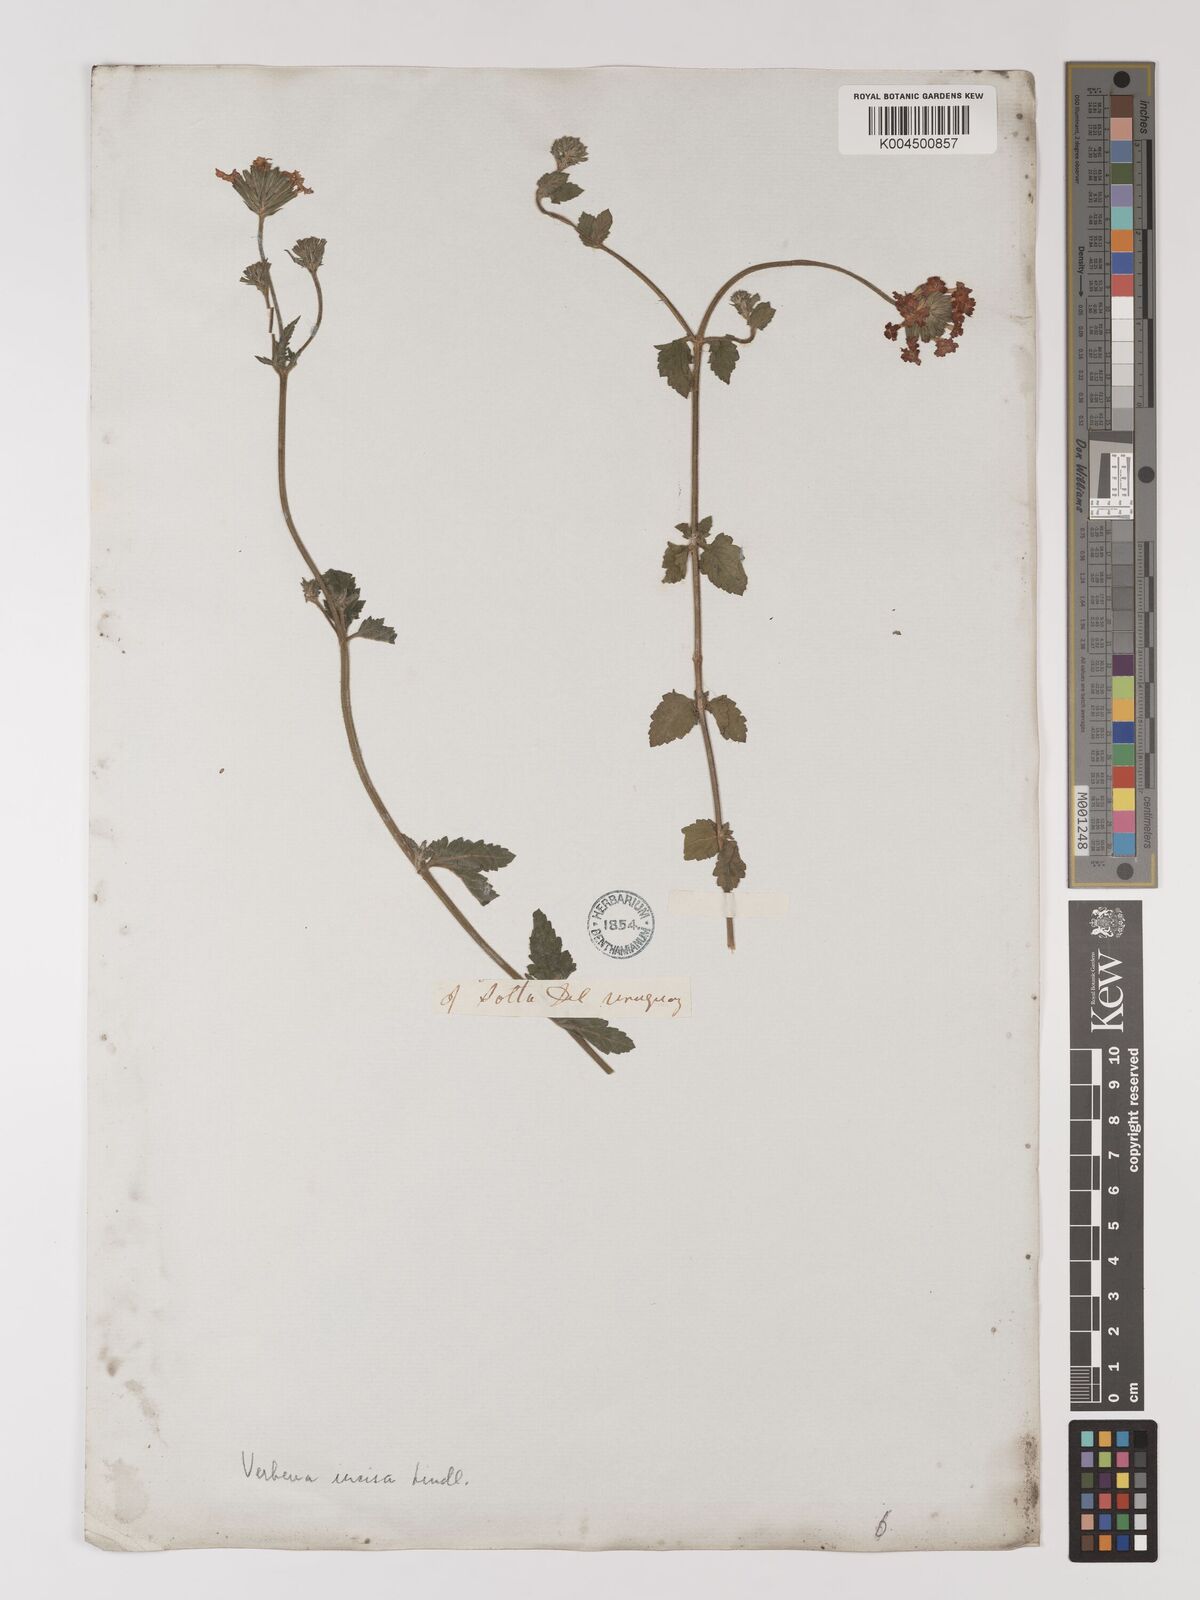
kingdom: Plantae
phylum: Tracheophyta
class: Magnoliopsida
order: Lamiales
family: Verbenaceae
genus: Verbena
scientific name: Verbena
